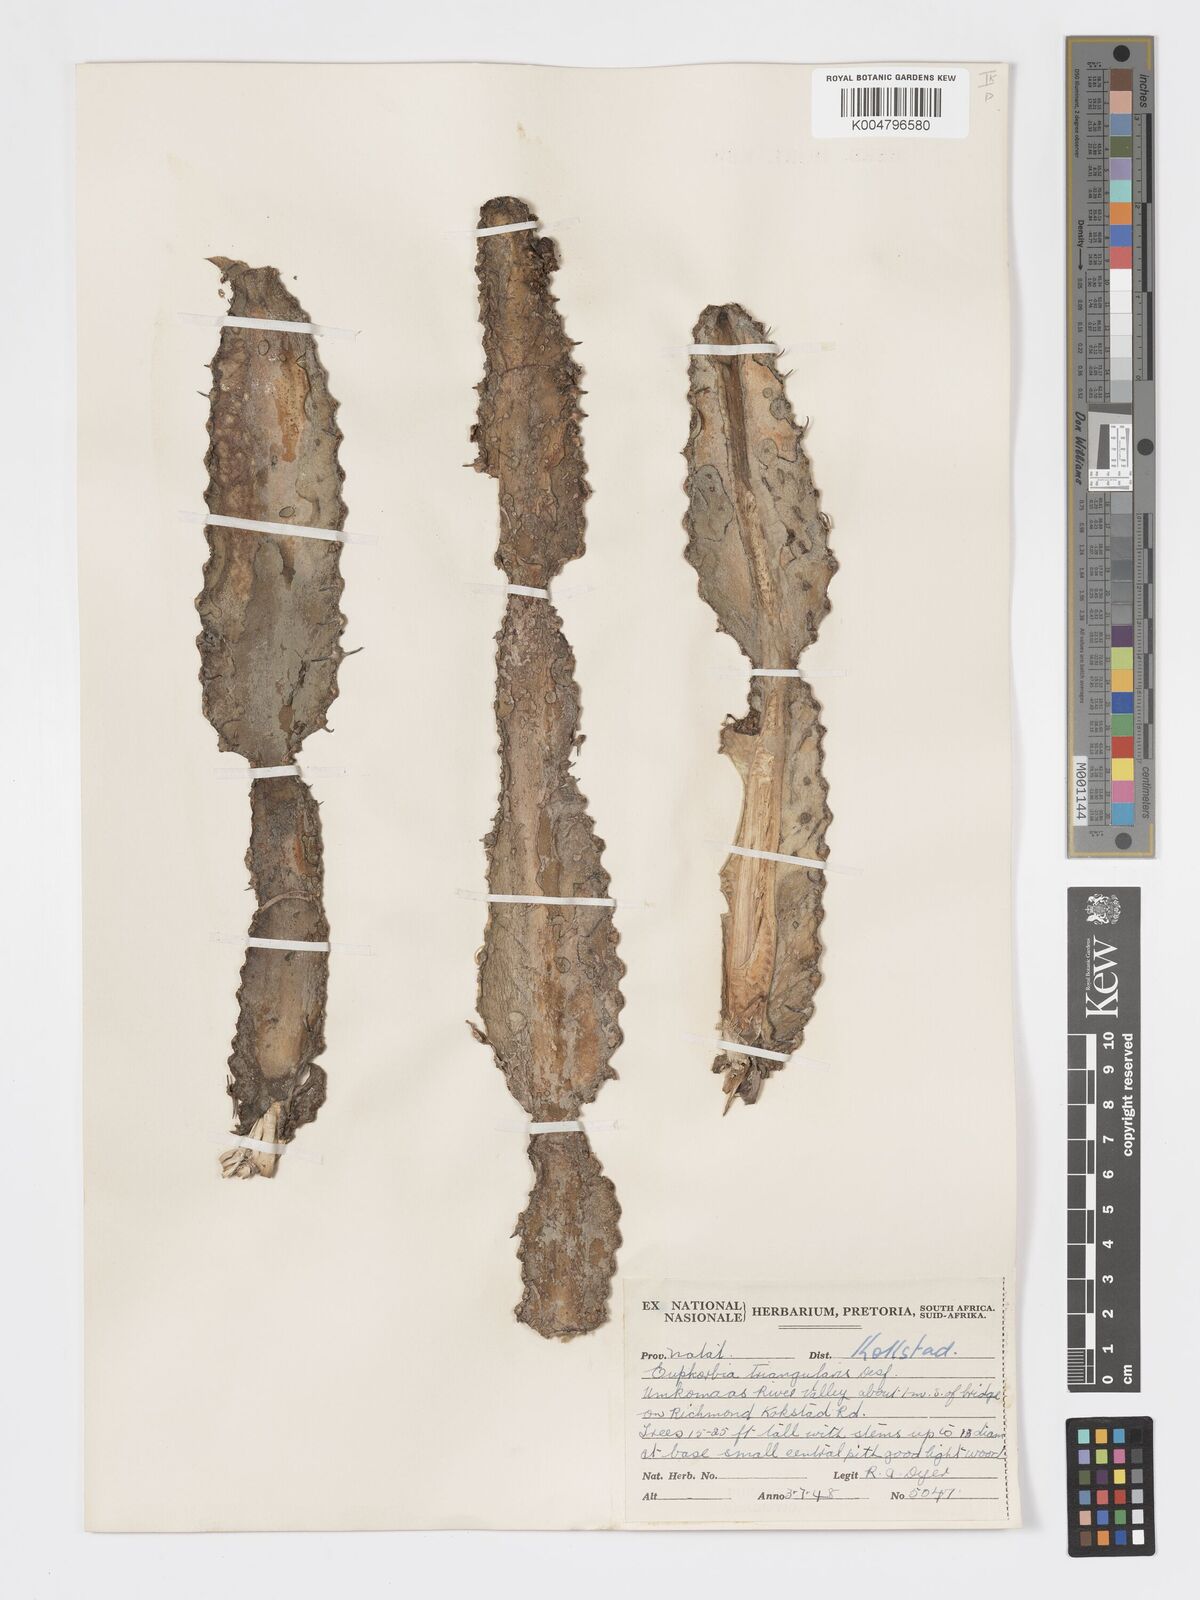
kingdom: Plantae
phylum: Tracheophyta
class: Magnoliopsida
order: Malpighiales
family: Euphorbiaceae
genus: Euphorbia
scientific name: Euphorbia triangularis
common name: Chandelier tree
